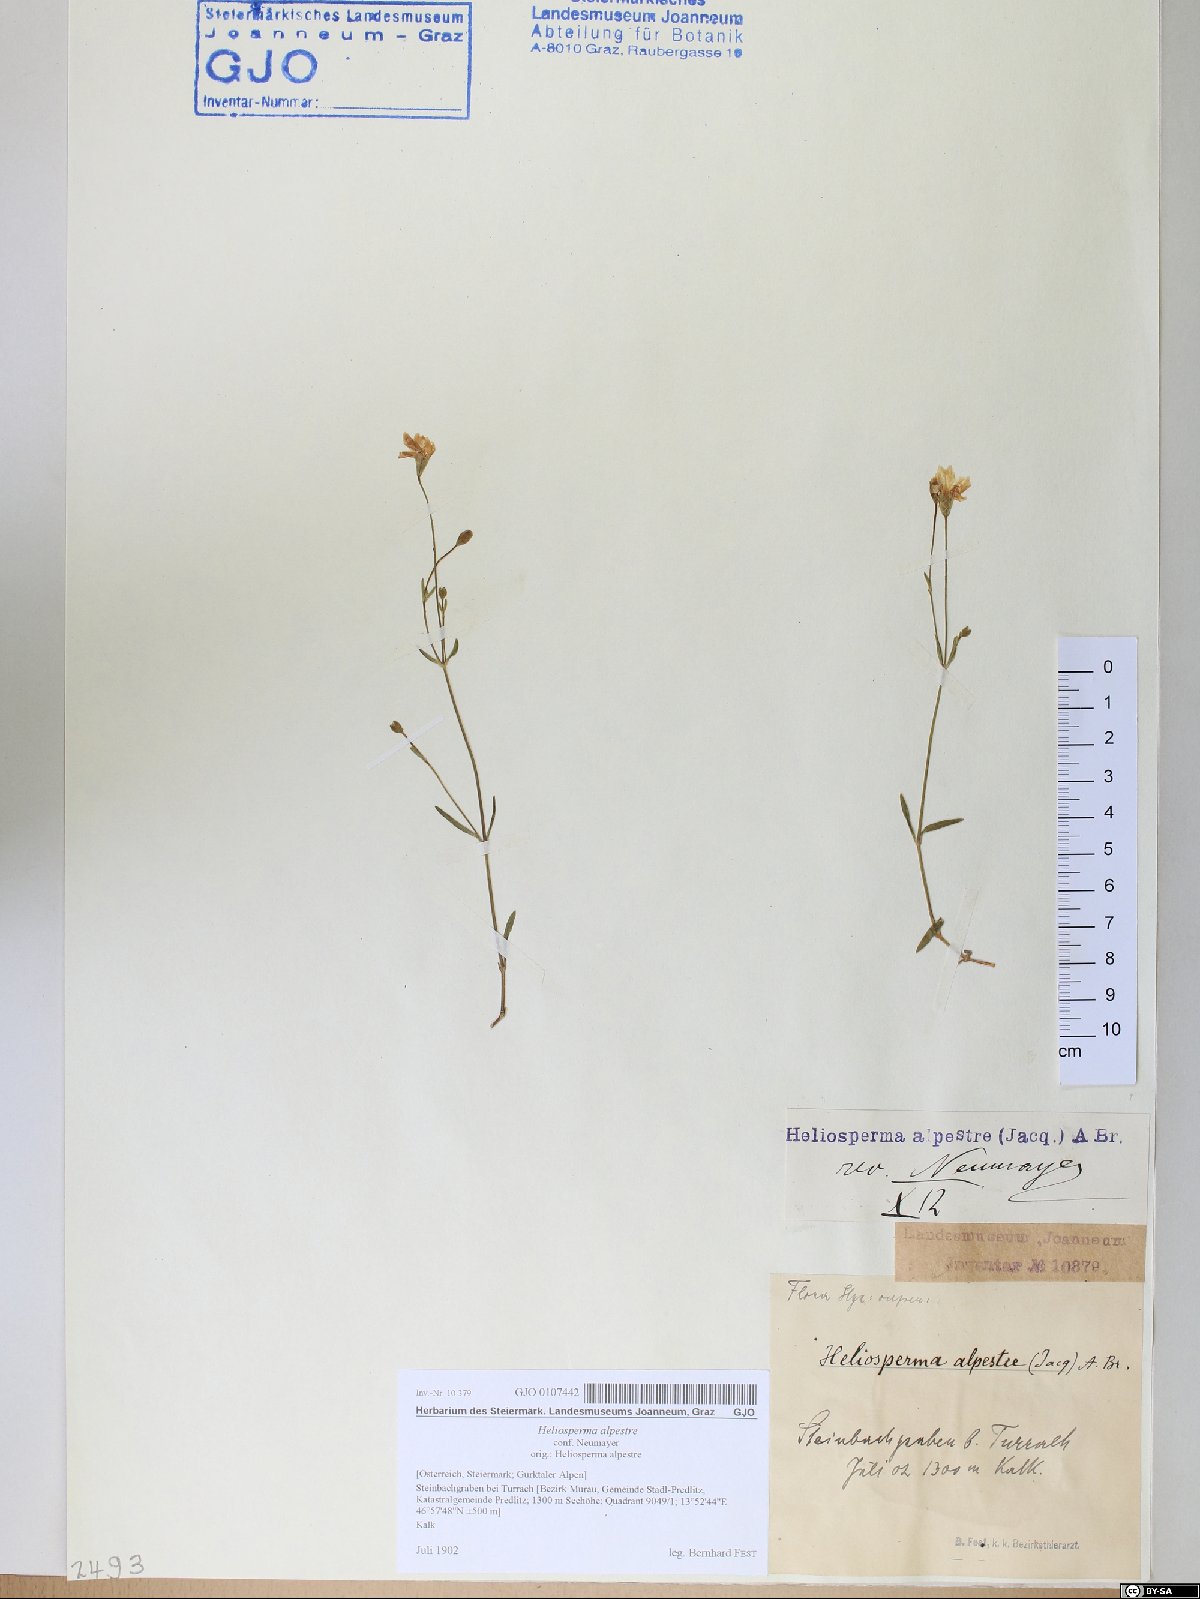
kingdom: Plantae
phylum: Tracheophyta
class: Magnoliopsida
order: Caryophyllales
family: Caryophyllaceae
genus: Heliosperma
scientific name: Heliosperma alpestre
